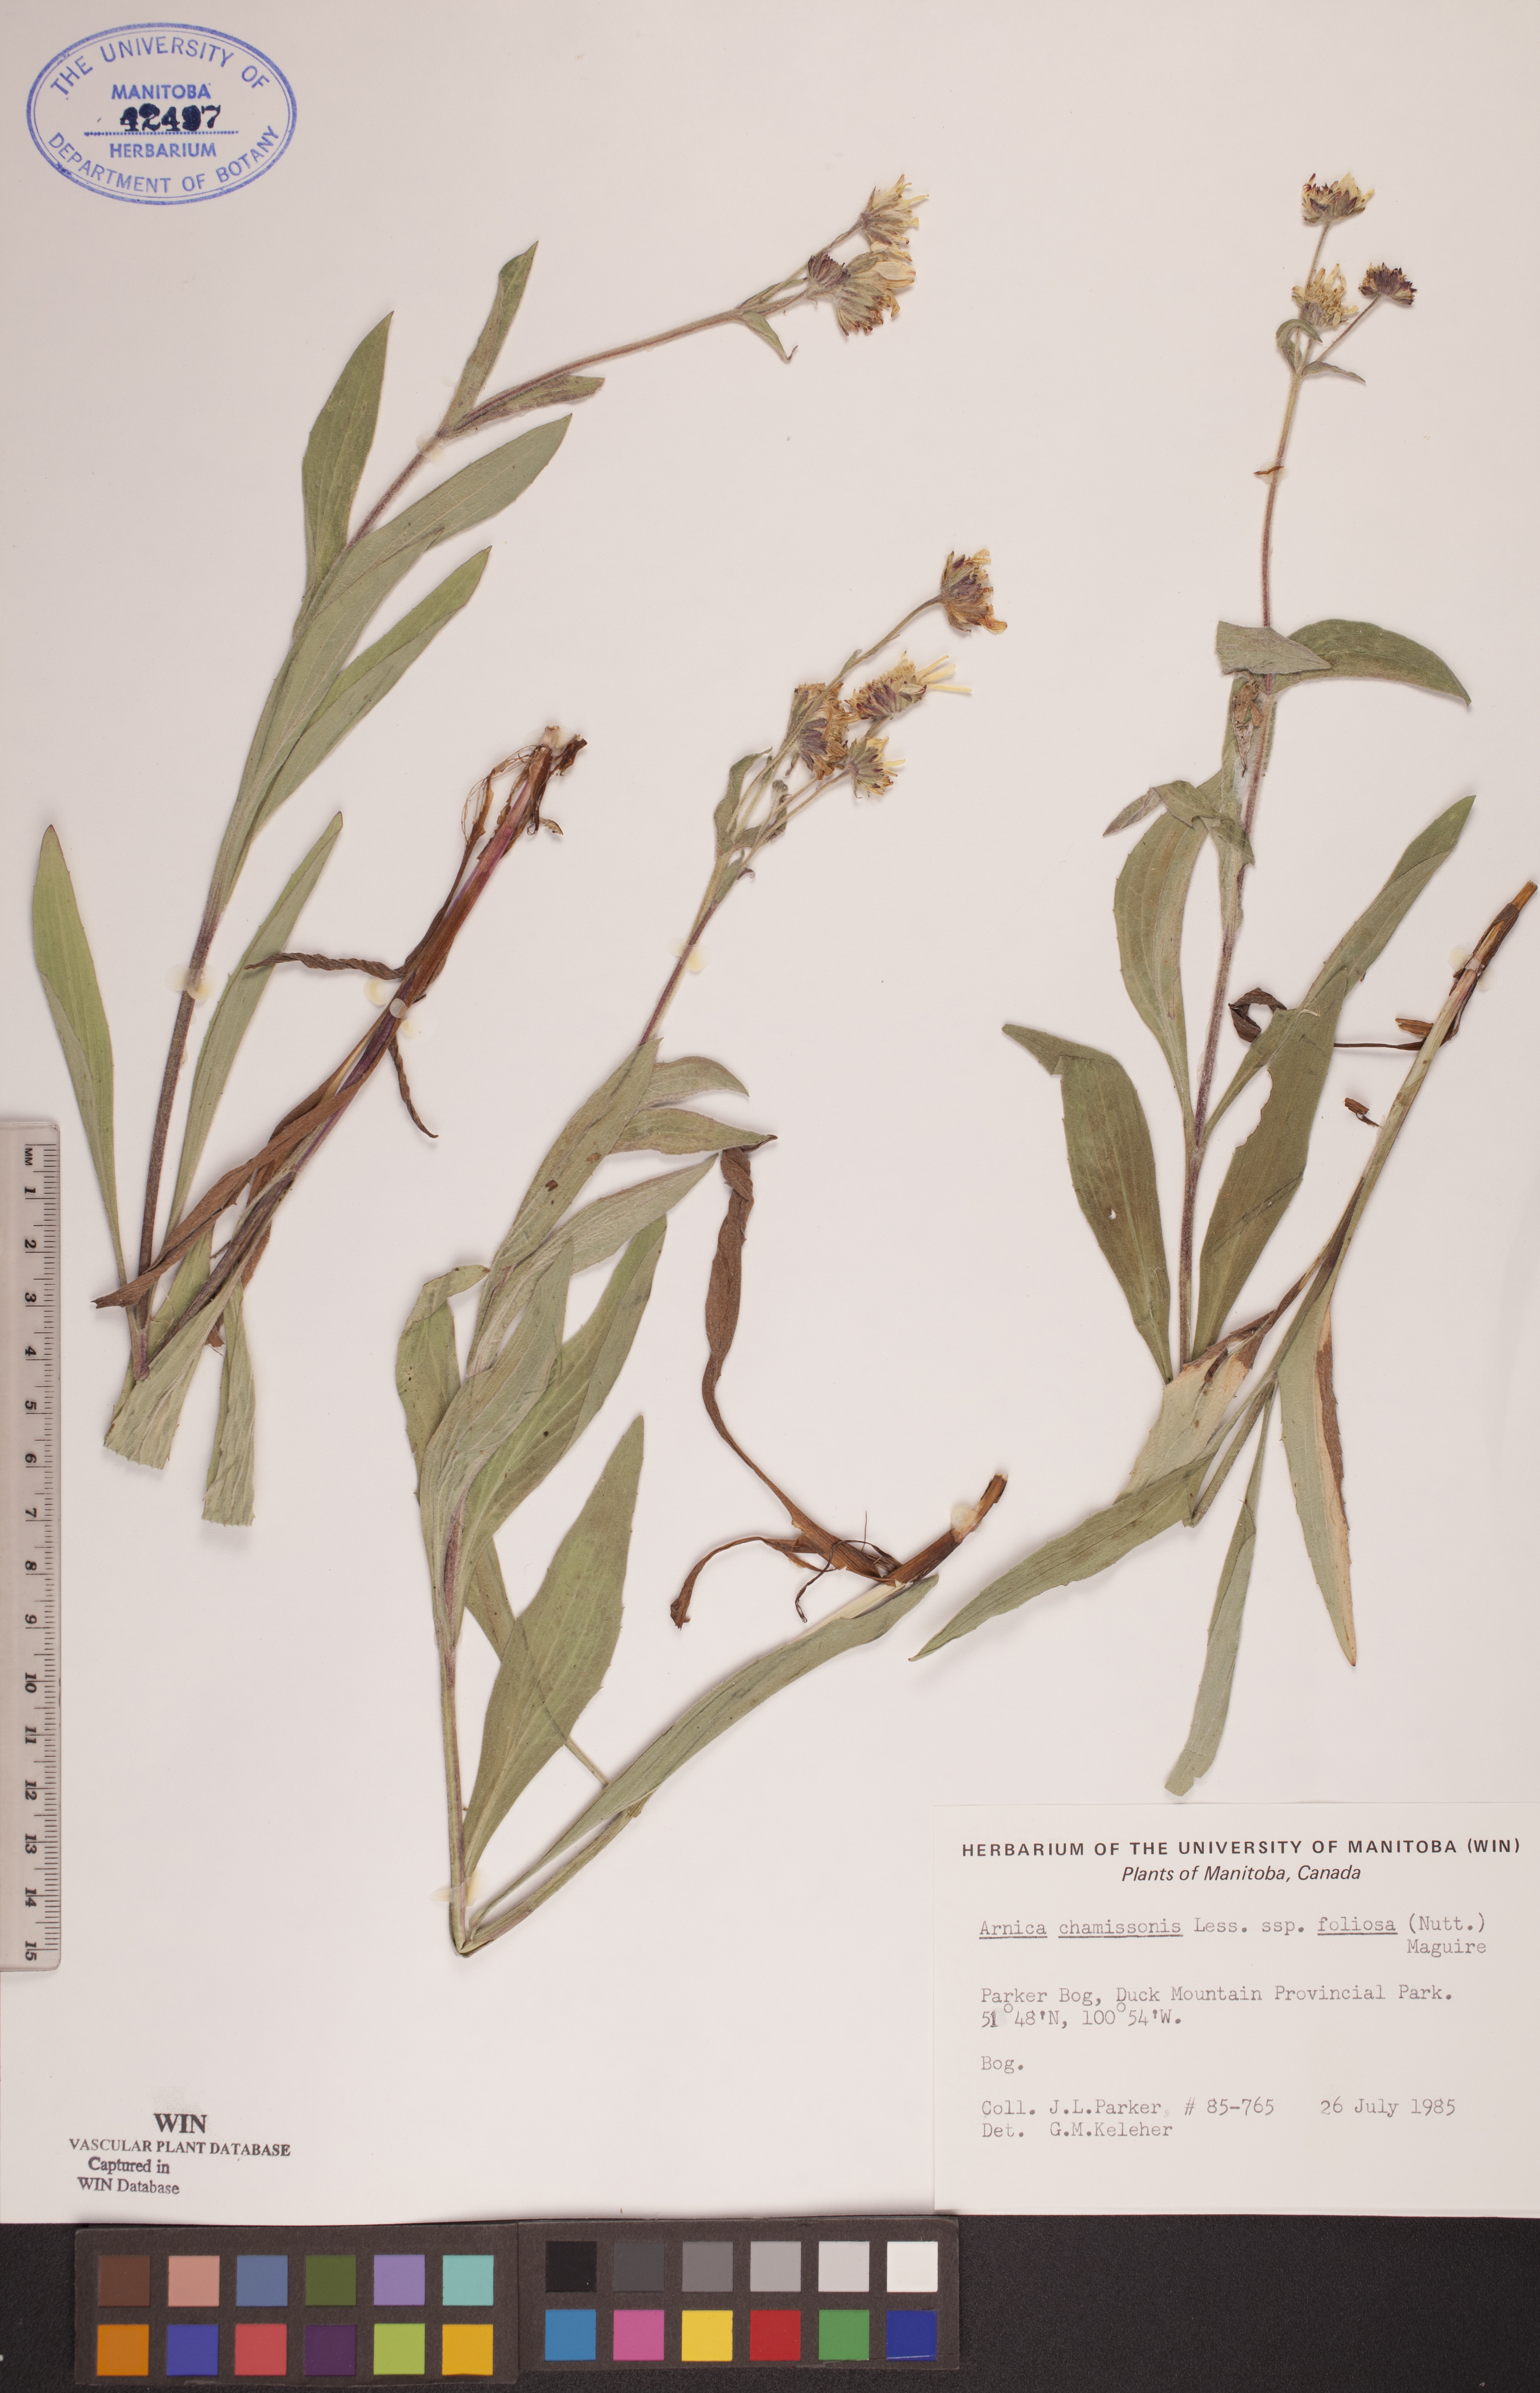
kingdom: Plantae
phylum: Tracheophyta
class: Magnoliopsida
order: Asterales
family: Asteraceae
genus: Arnica
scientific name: Arnica chamissonis
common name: Leafy arnica
